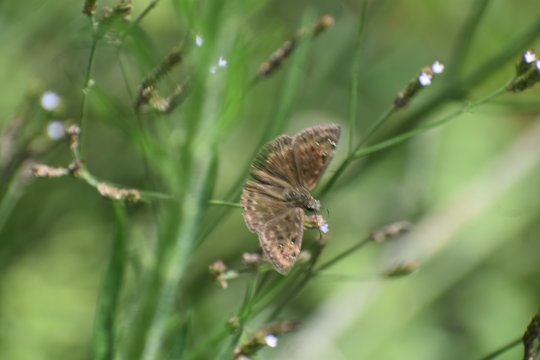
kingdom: Animalia
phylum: Arthropoda
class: Insecta
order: Lepidoptera
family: Hesperiidae
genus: Gesta
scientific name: Gesta
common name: Horace's Duskywing
